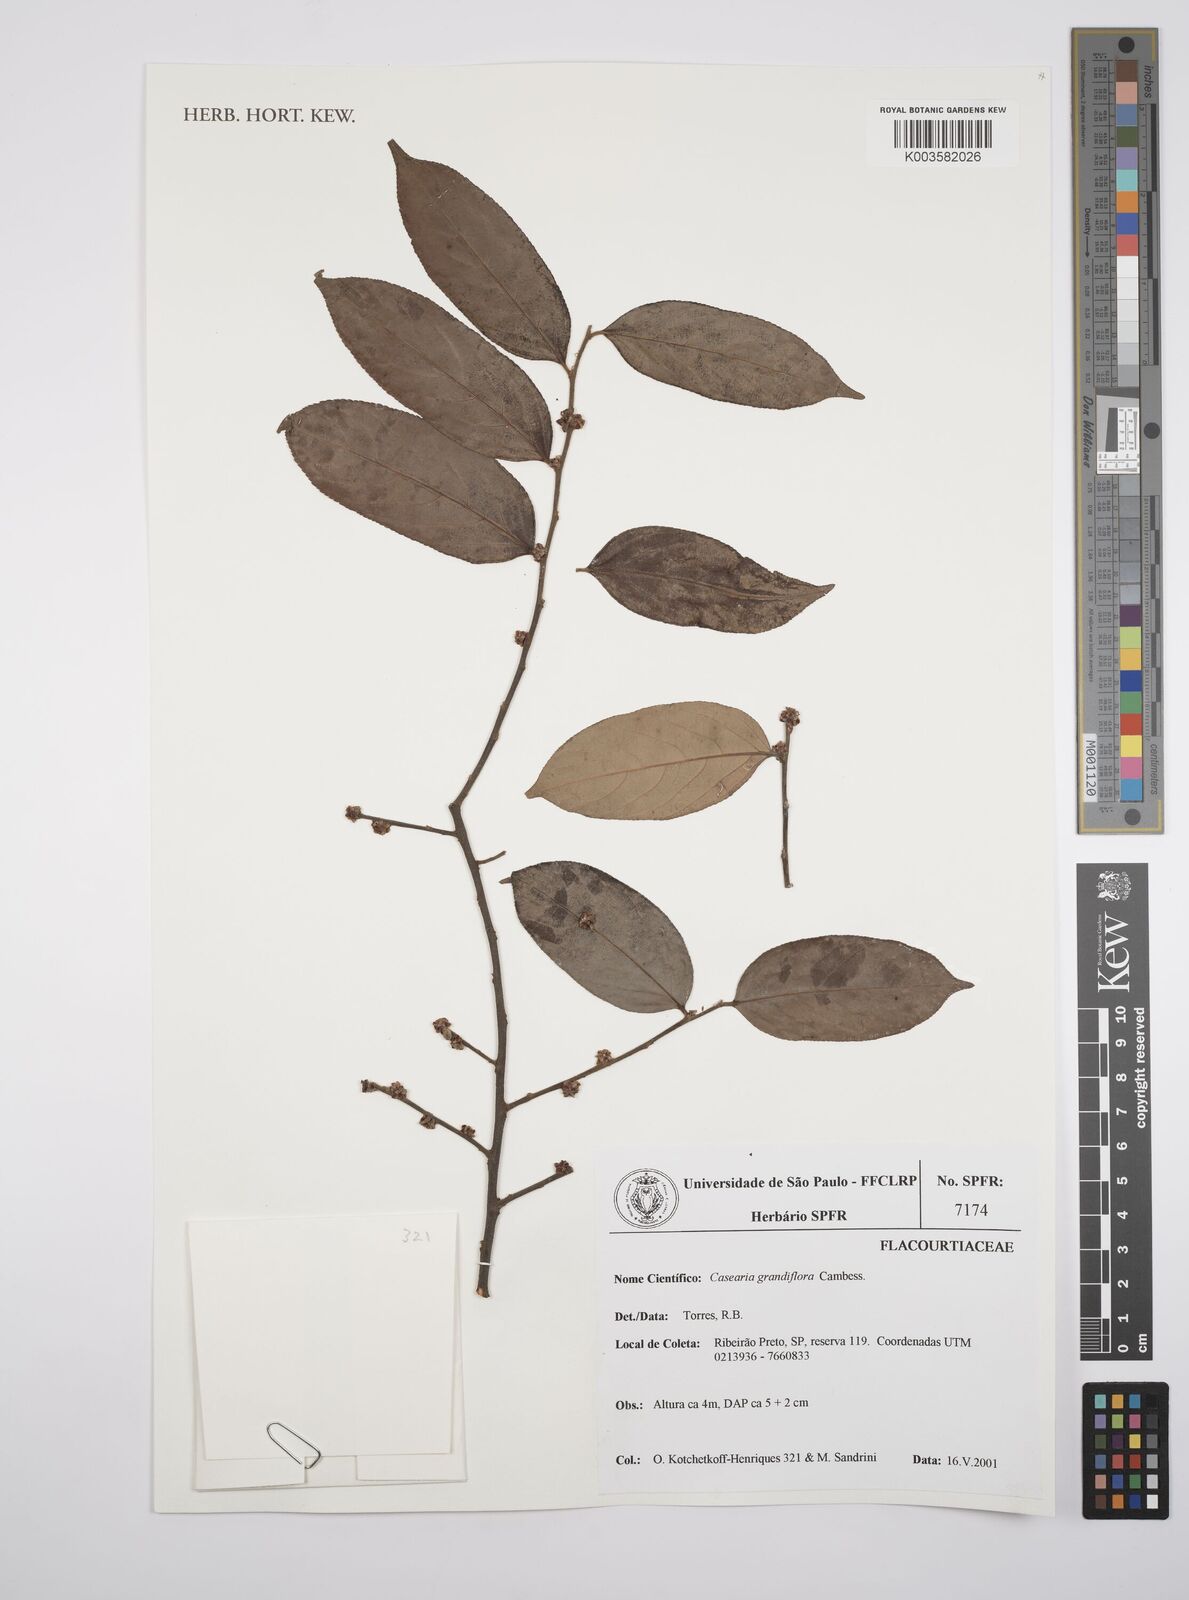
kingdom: Plantae
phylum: Tracheophyta
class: Magnoliopsida
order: Malpighiales
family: Salicaceae
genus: Casearia
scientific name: Casearia grandiflora
